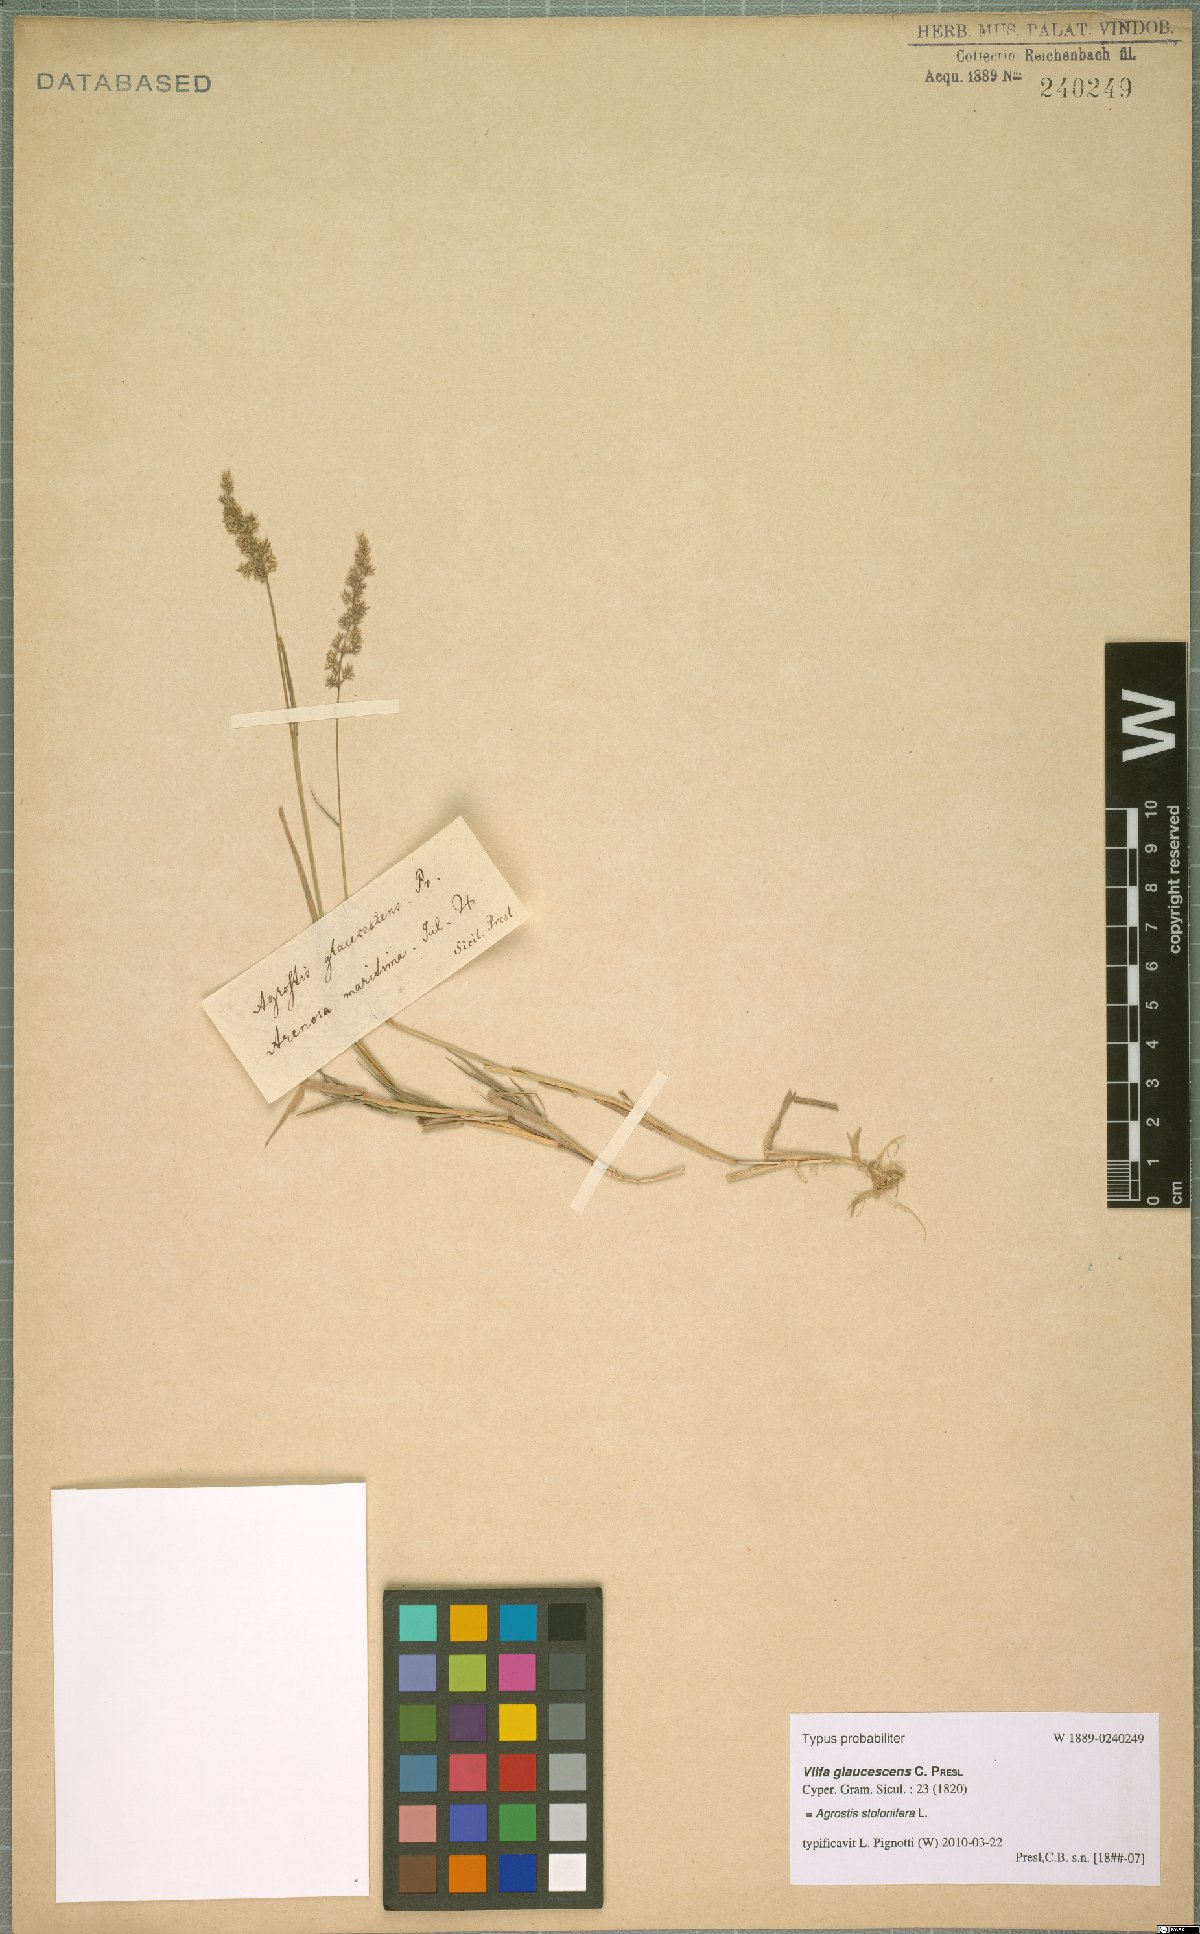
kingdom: Plantae
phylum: Tracheophyta
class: Liliopsida
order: Poales
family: Poaceae
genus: Agrostis
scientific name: Agrostis stolonifera
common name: Creeping bentgrass
